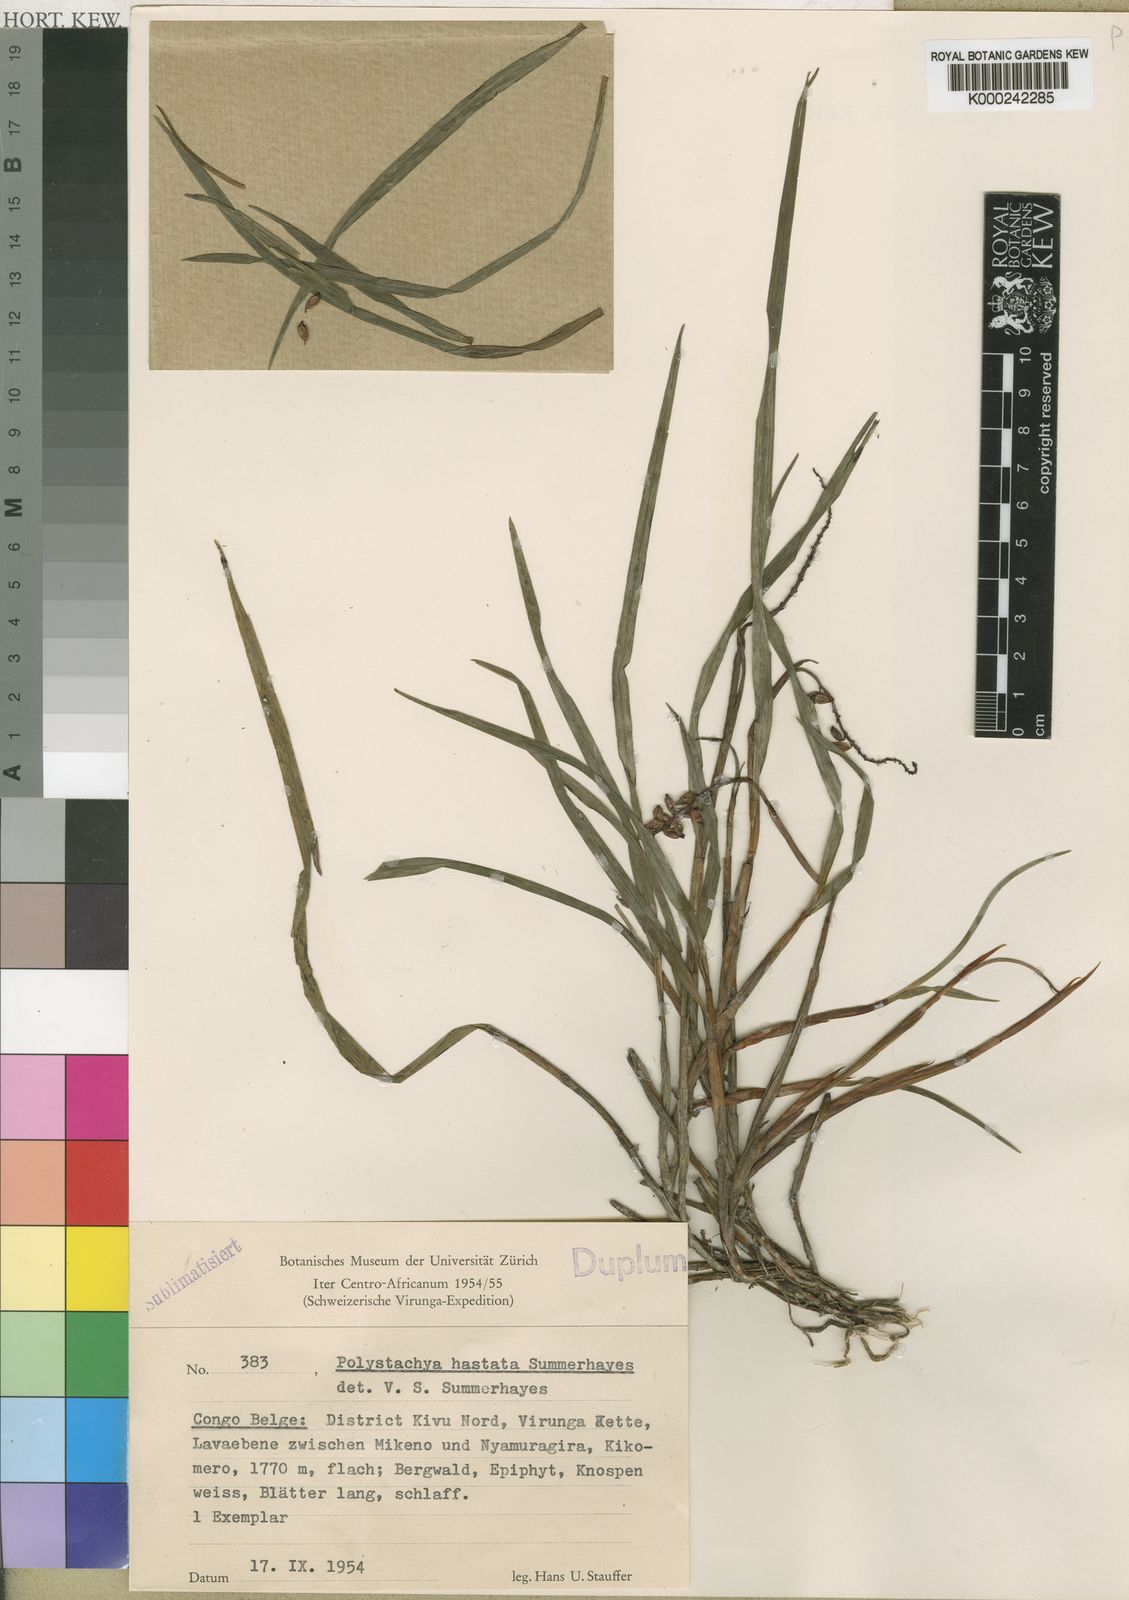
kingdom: Plantae
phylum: Tracheophyta
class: Liliopsida
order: Asparagales
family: Orchidaceae
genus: Polystachya
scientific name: Polystachya hastata
